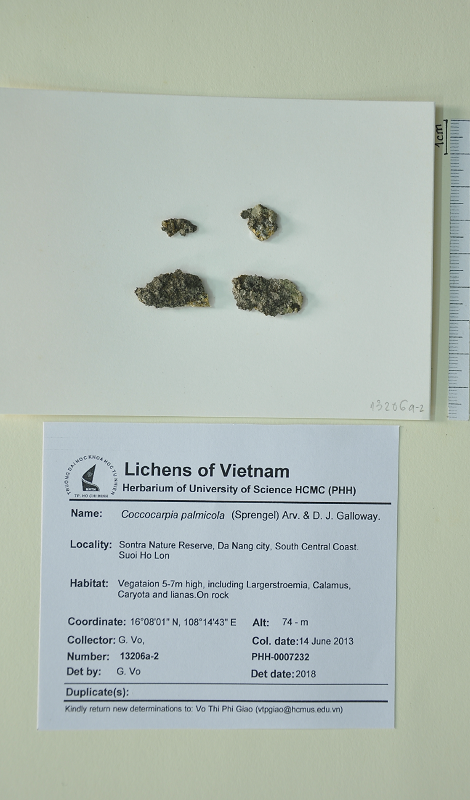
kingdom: Fungi
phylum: Ascomycota
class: Lecanoromycetes
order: Peltigerales
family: Coccocarpiaceae
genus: Coccocarpia
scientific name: Coccocarpia palmicola
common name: Salted shell lichen
